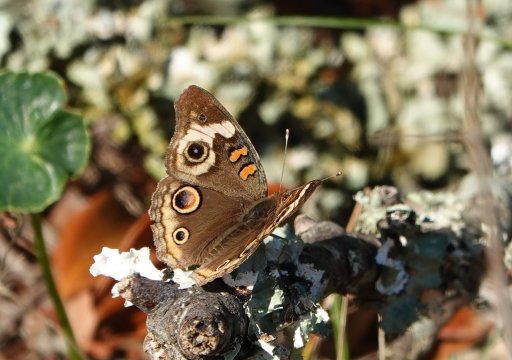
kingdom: Animalia
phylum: Arthropoda
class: Insecta
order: Lepidoptera
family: Nymphalidae
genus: Junonia
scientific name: Junonia coenia
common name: Common Buckeye
